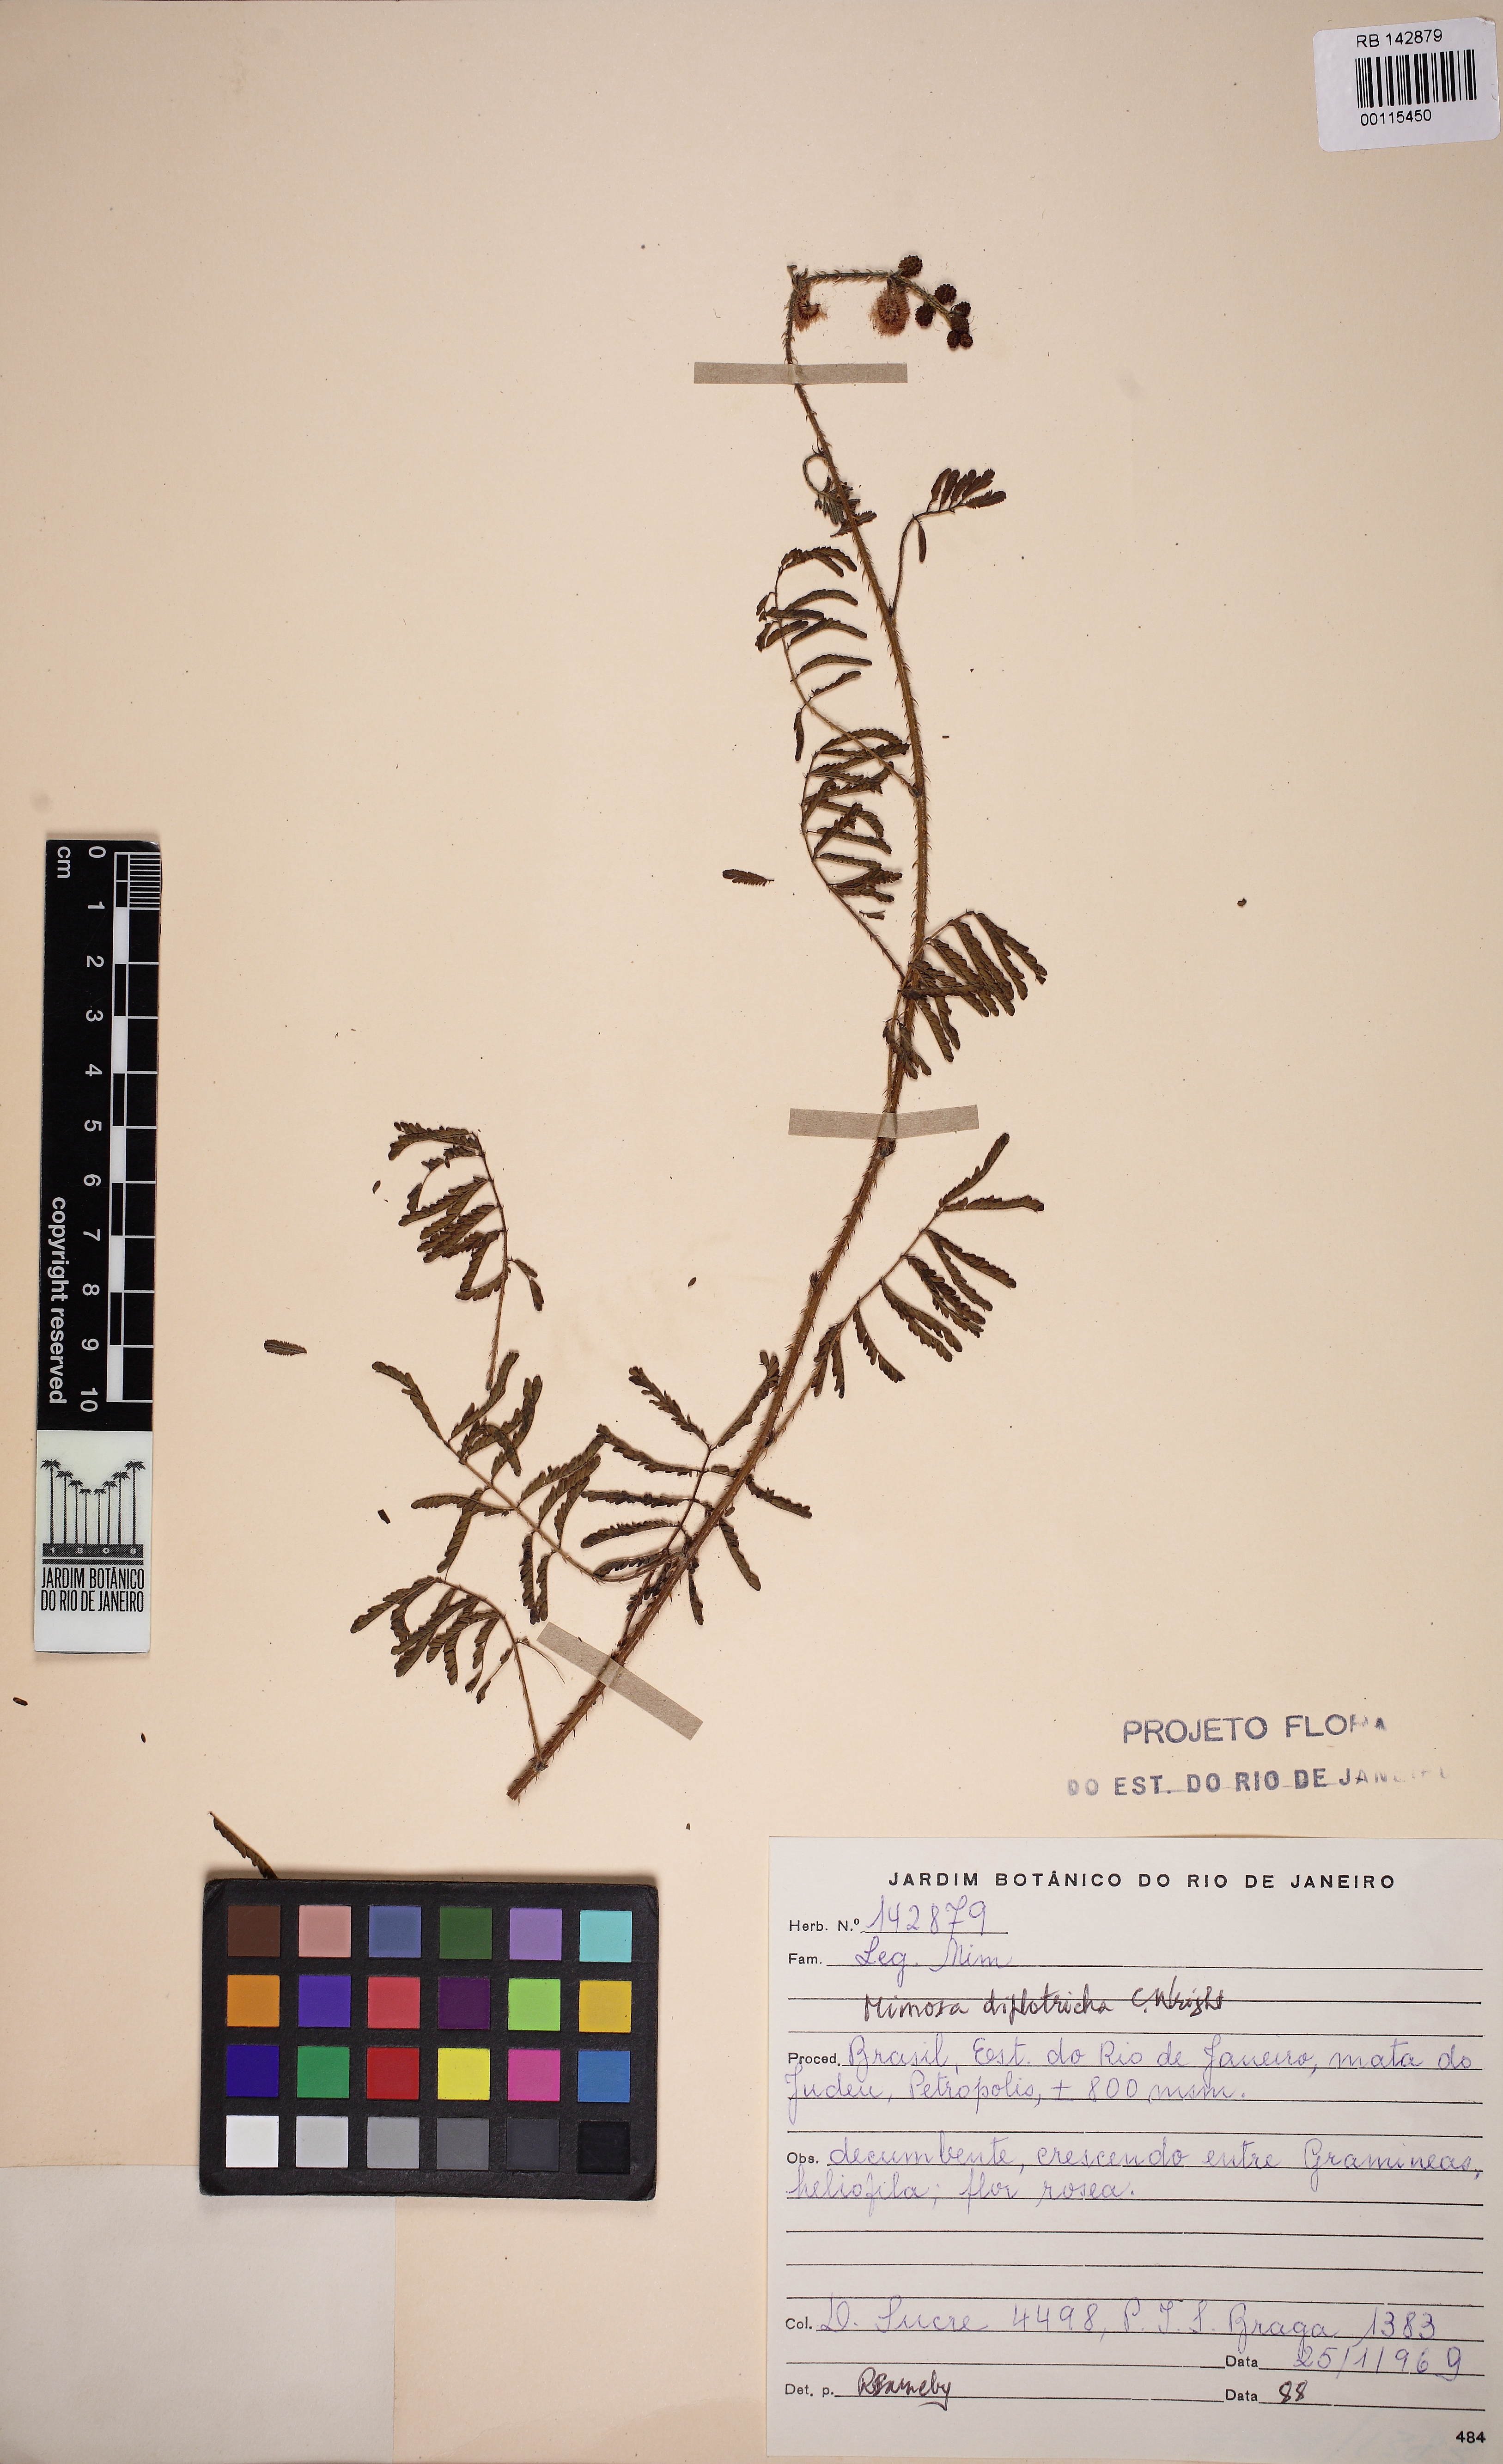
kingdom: Plantae
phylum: Tracheophyta
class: Magnoliopsida
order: Fabales
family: Fabaceae
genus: Mimosa
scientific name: Mimosa diplotricha
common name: Giant sensitive-plant
